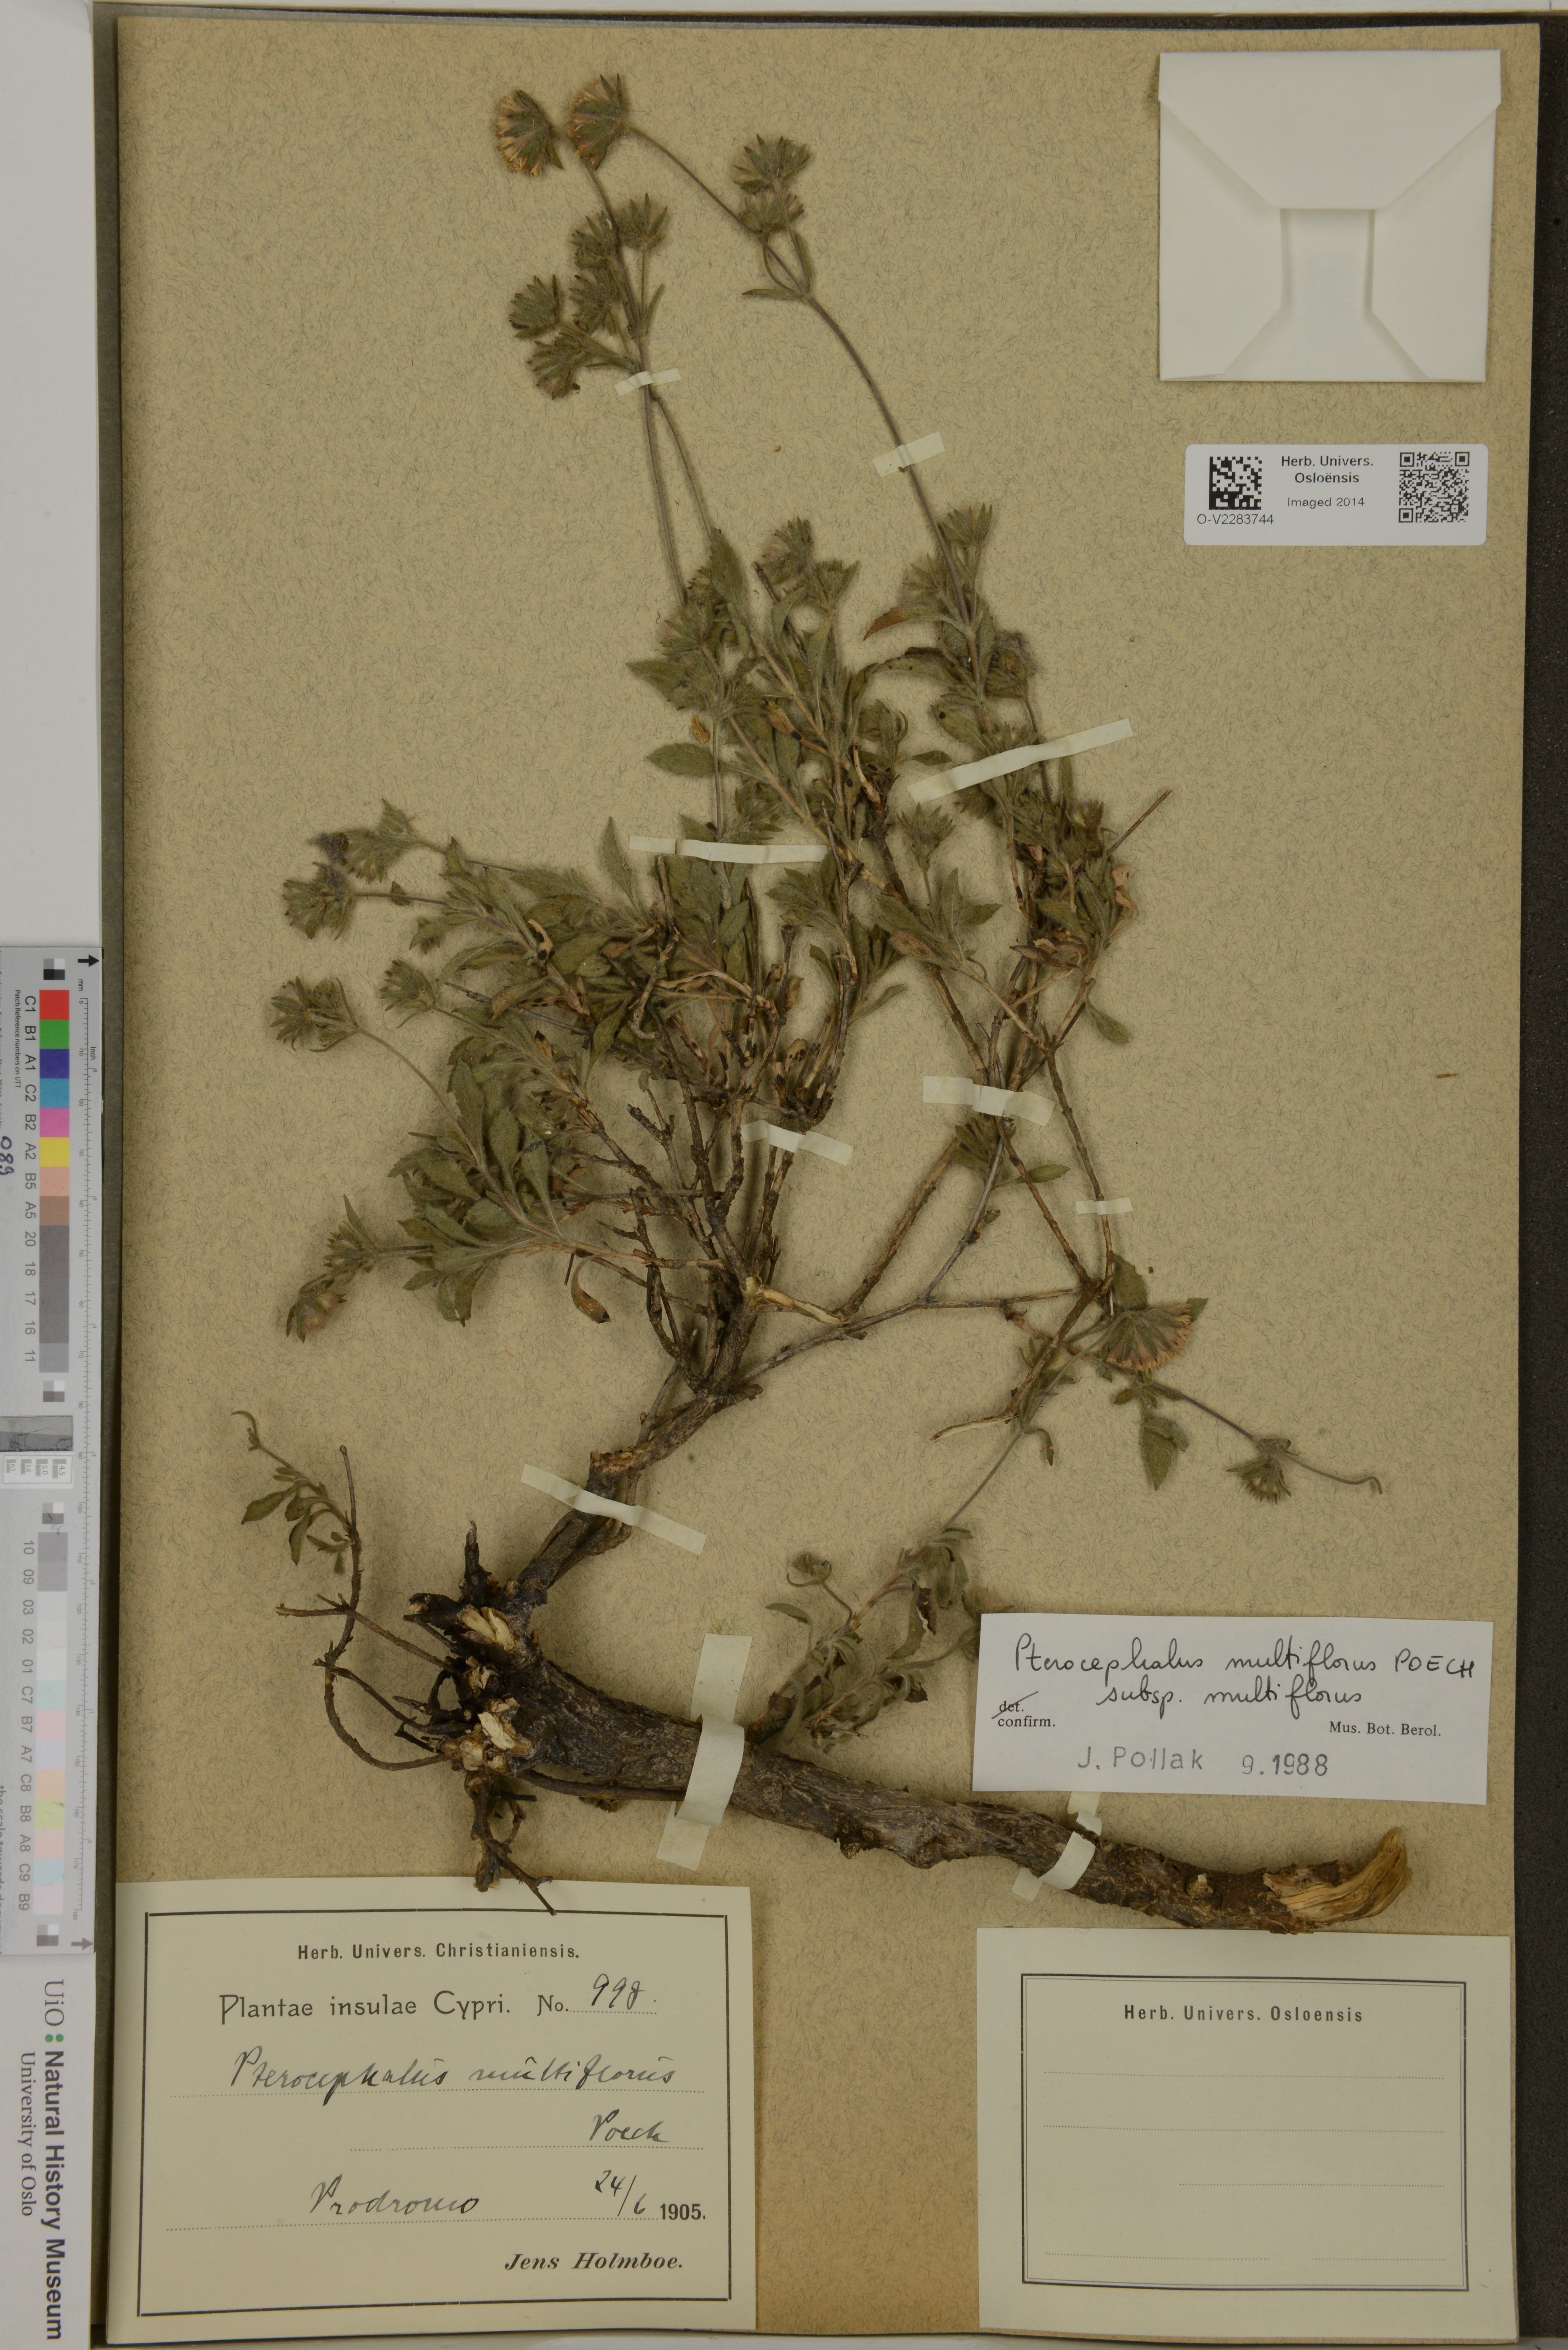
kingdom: Plantae
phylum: Tracheophyta
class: Magnoliopsida
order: Dipsacales
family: Caprifoliaceae
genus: Pterocephalus
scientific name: Pterocephalus multiflorus
